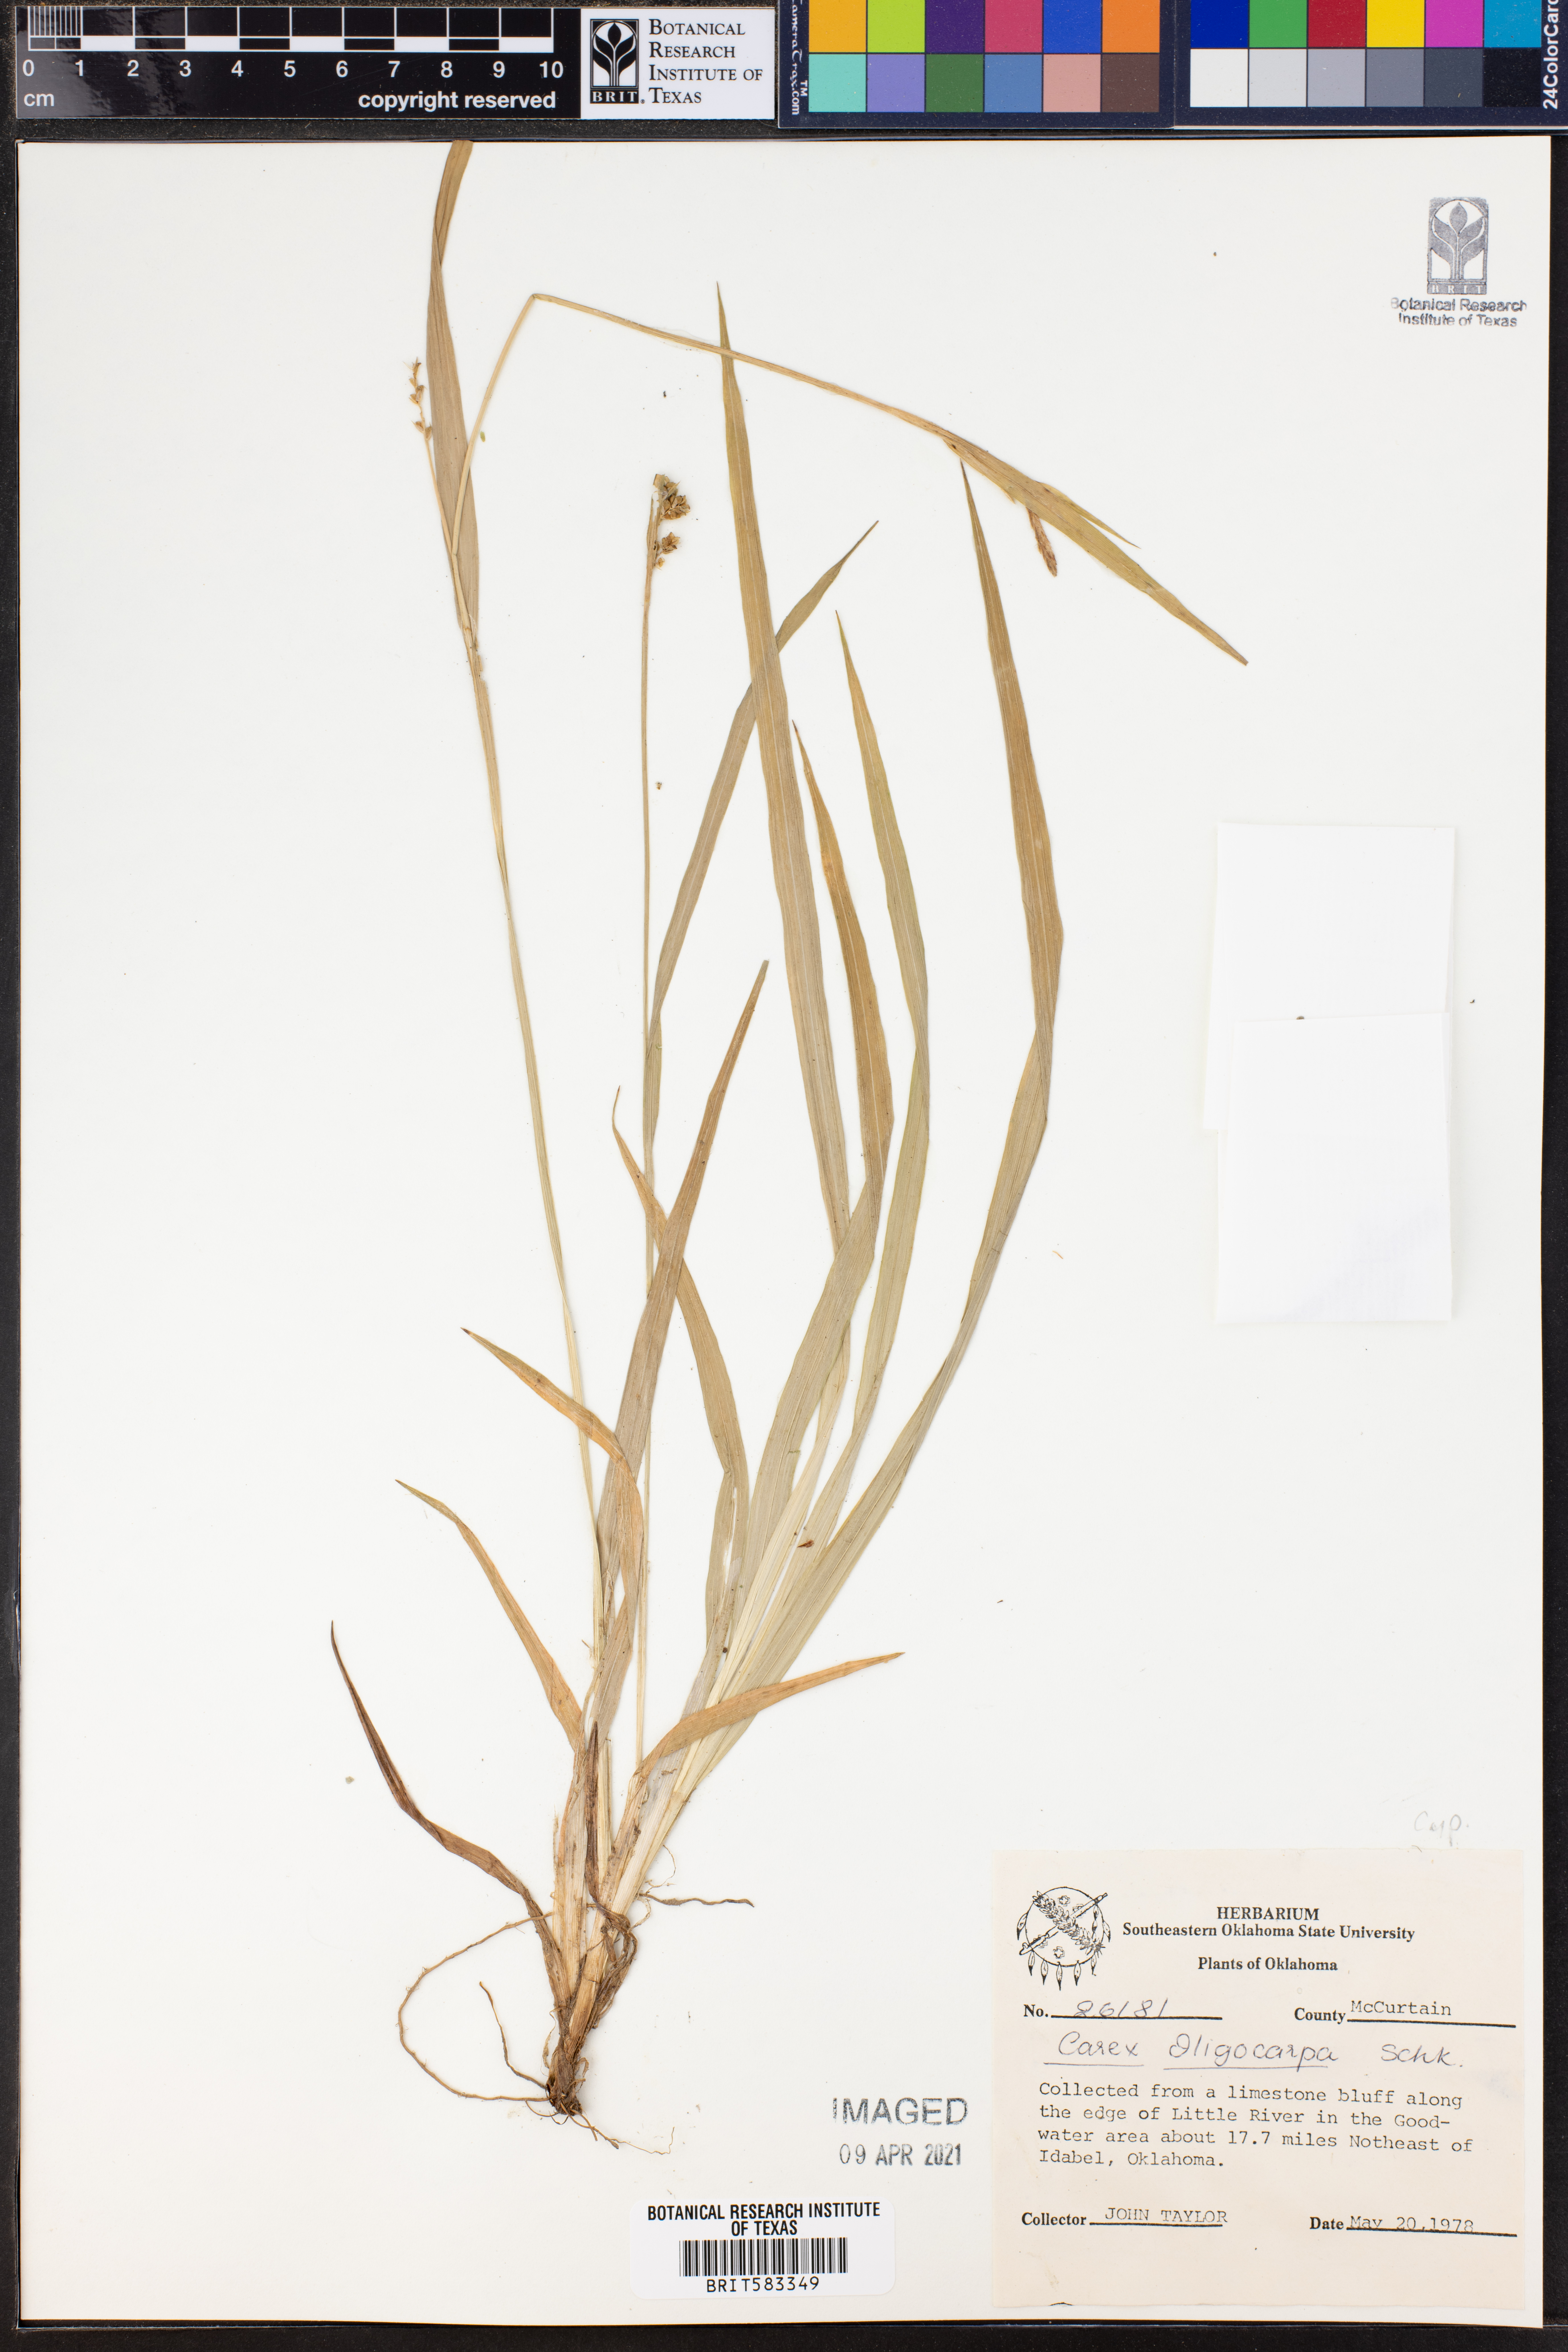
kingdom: Plantae
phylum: Tracheophyta
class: Liliopsida
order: Poales
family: Cyperaceae
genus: Carex
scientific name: Carex oligocarpa
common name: Eastern few-fruited sedge
